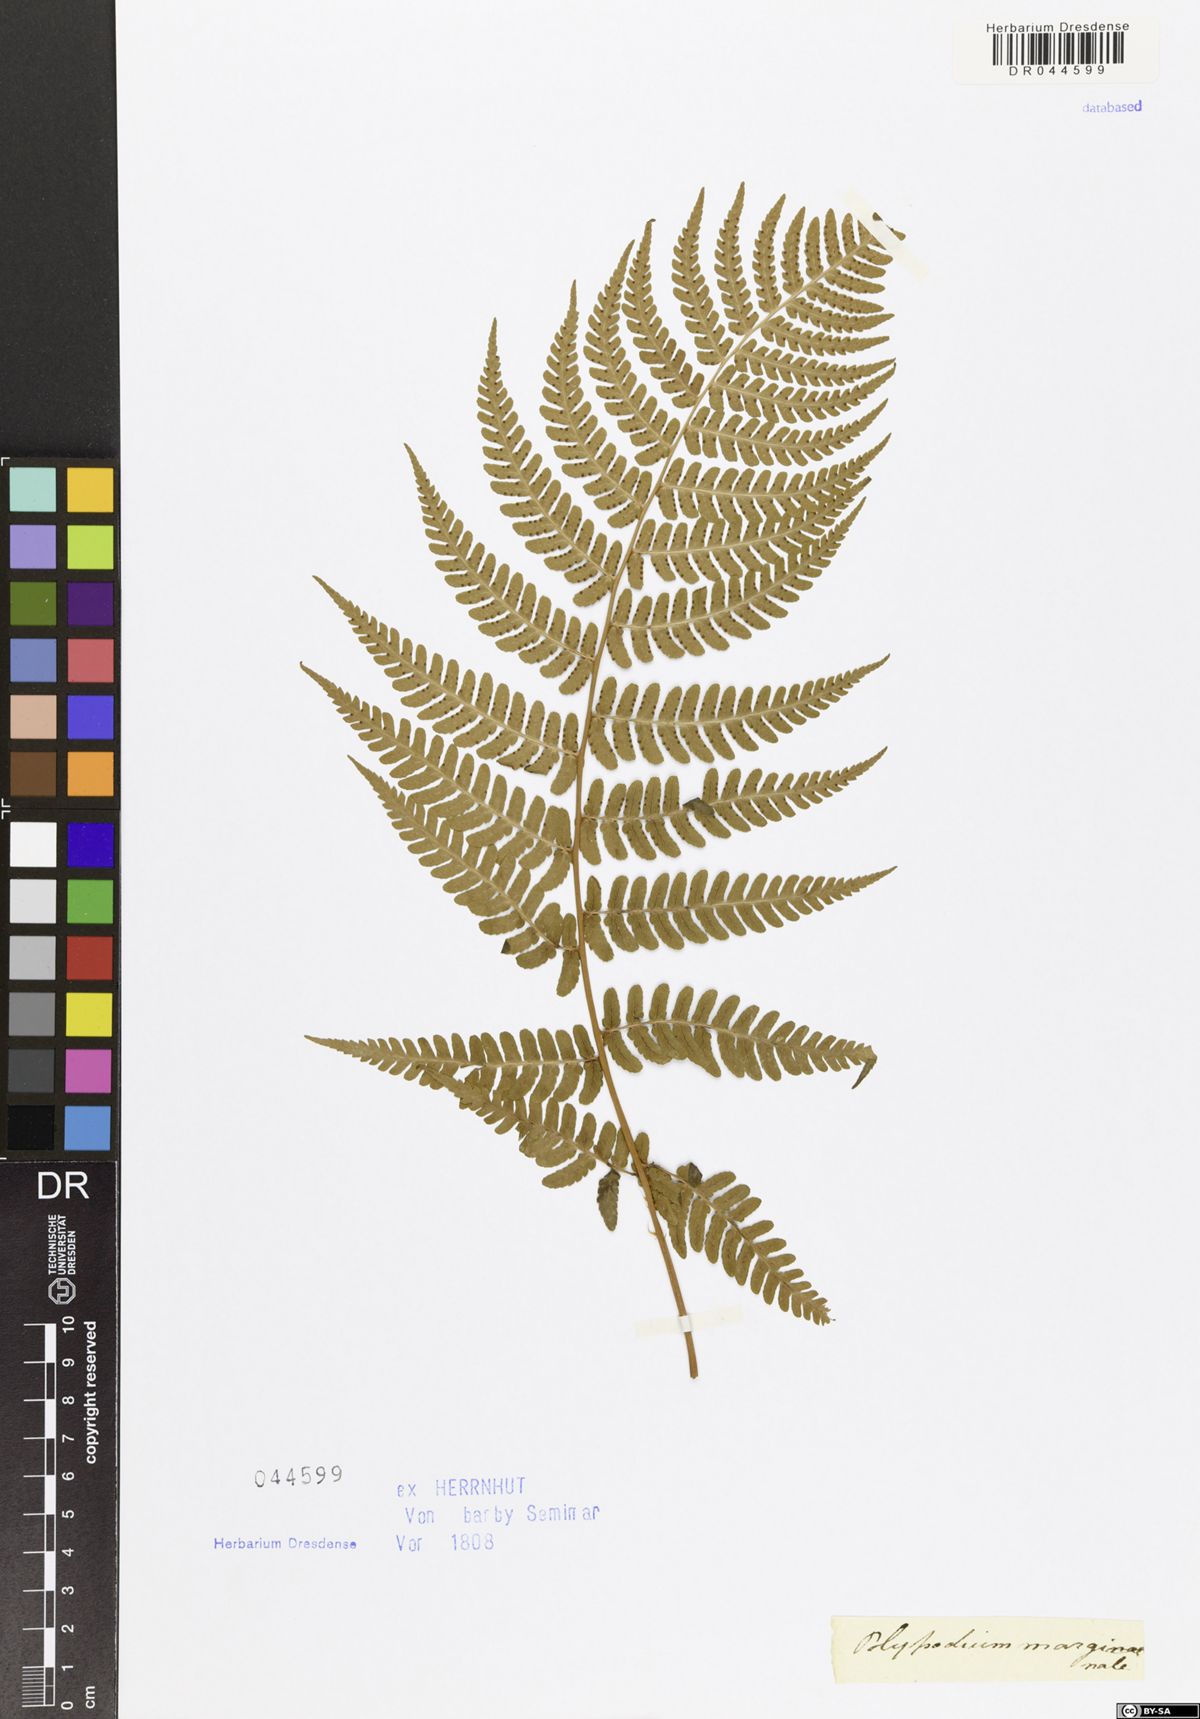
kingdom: Plantae
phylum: Tracheophyta
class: Polypodiopsida
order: Polypodiales
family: Dryopteridaceae
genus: Dryopteris
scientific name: Dryopteris marginalis
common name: Marginal wood fern
